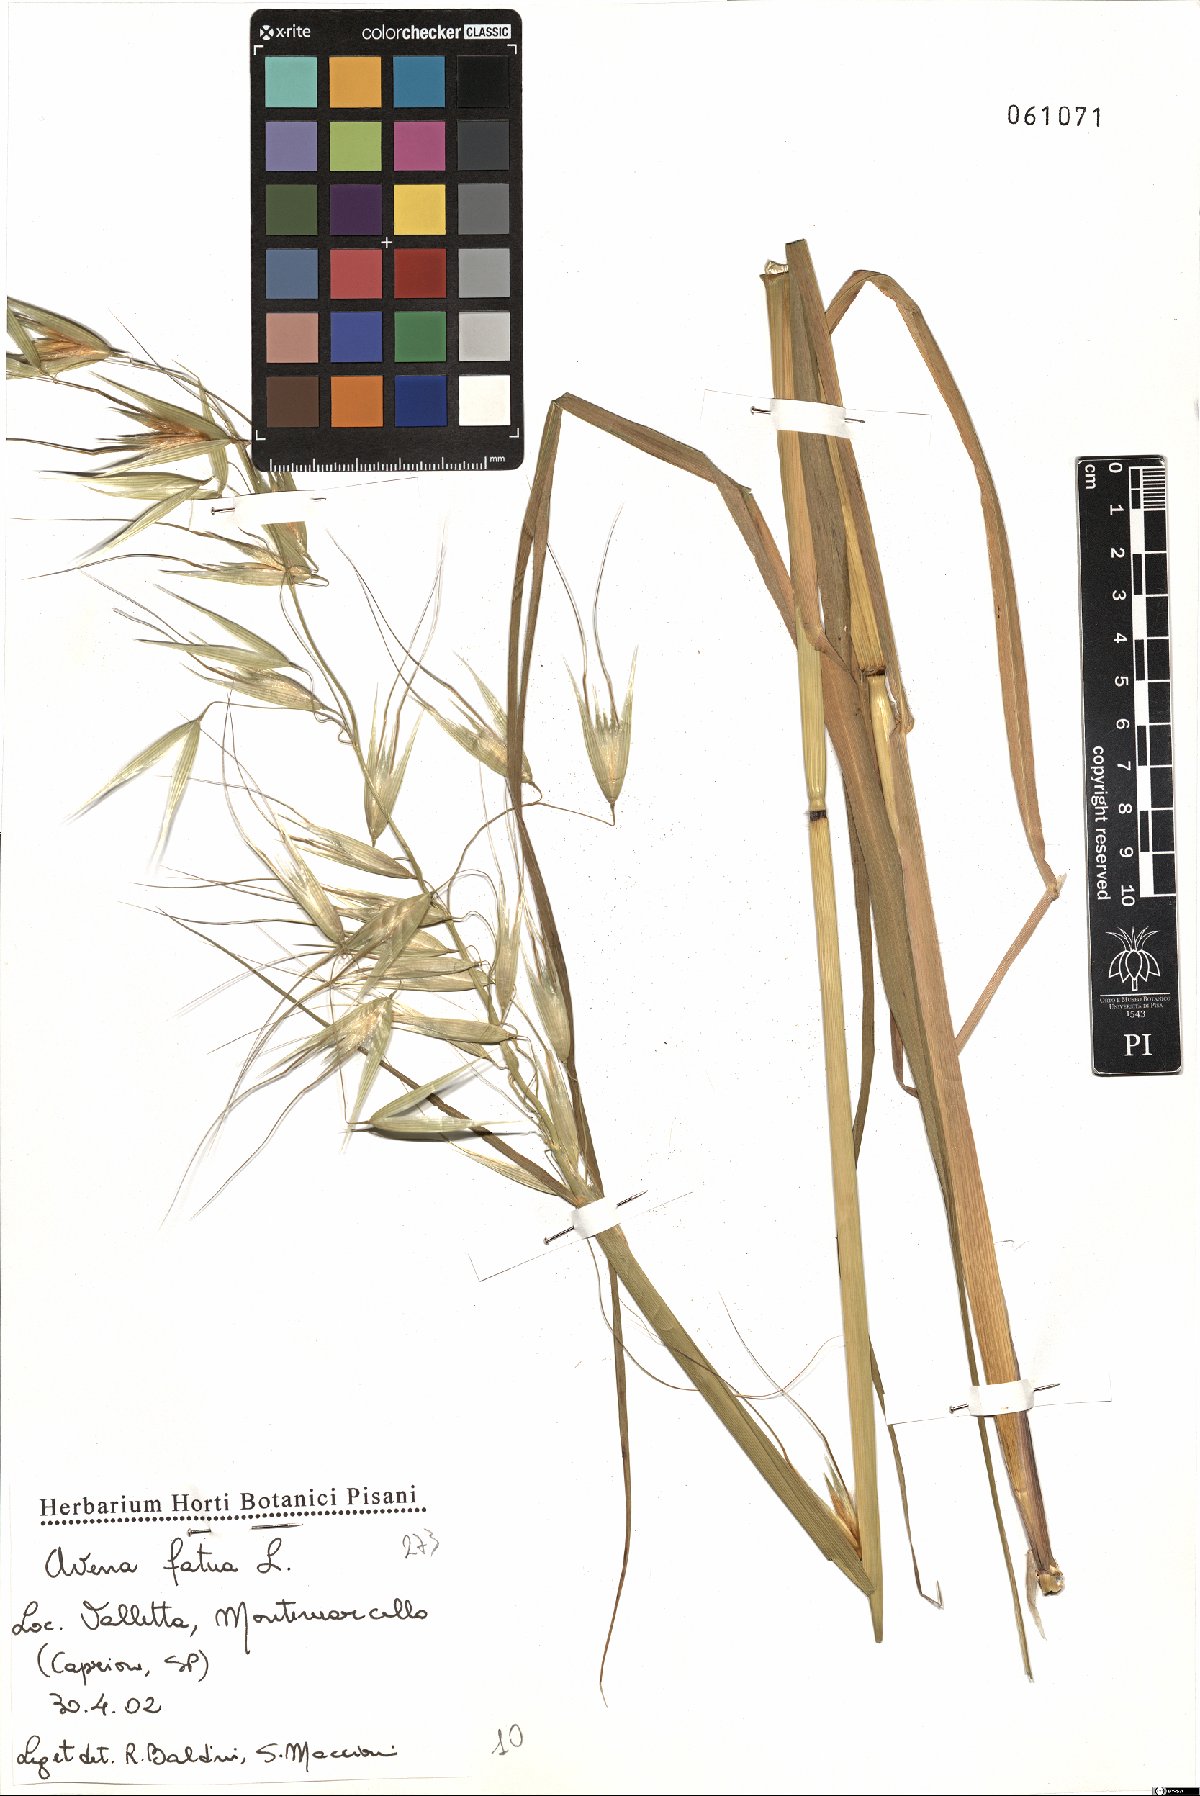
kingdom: Plantae
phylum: Tracheophyta
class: Liliopsida
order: Poales
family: Poaceae
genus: Avena
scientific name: Avena fatua
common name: Wild oat
